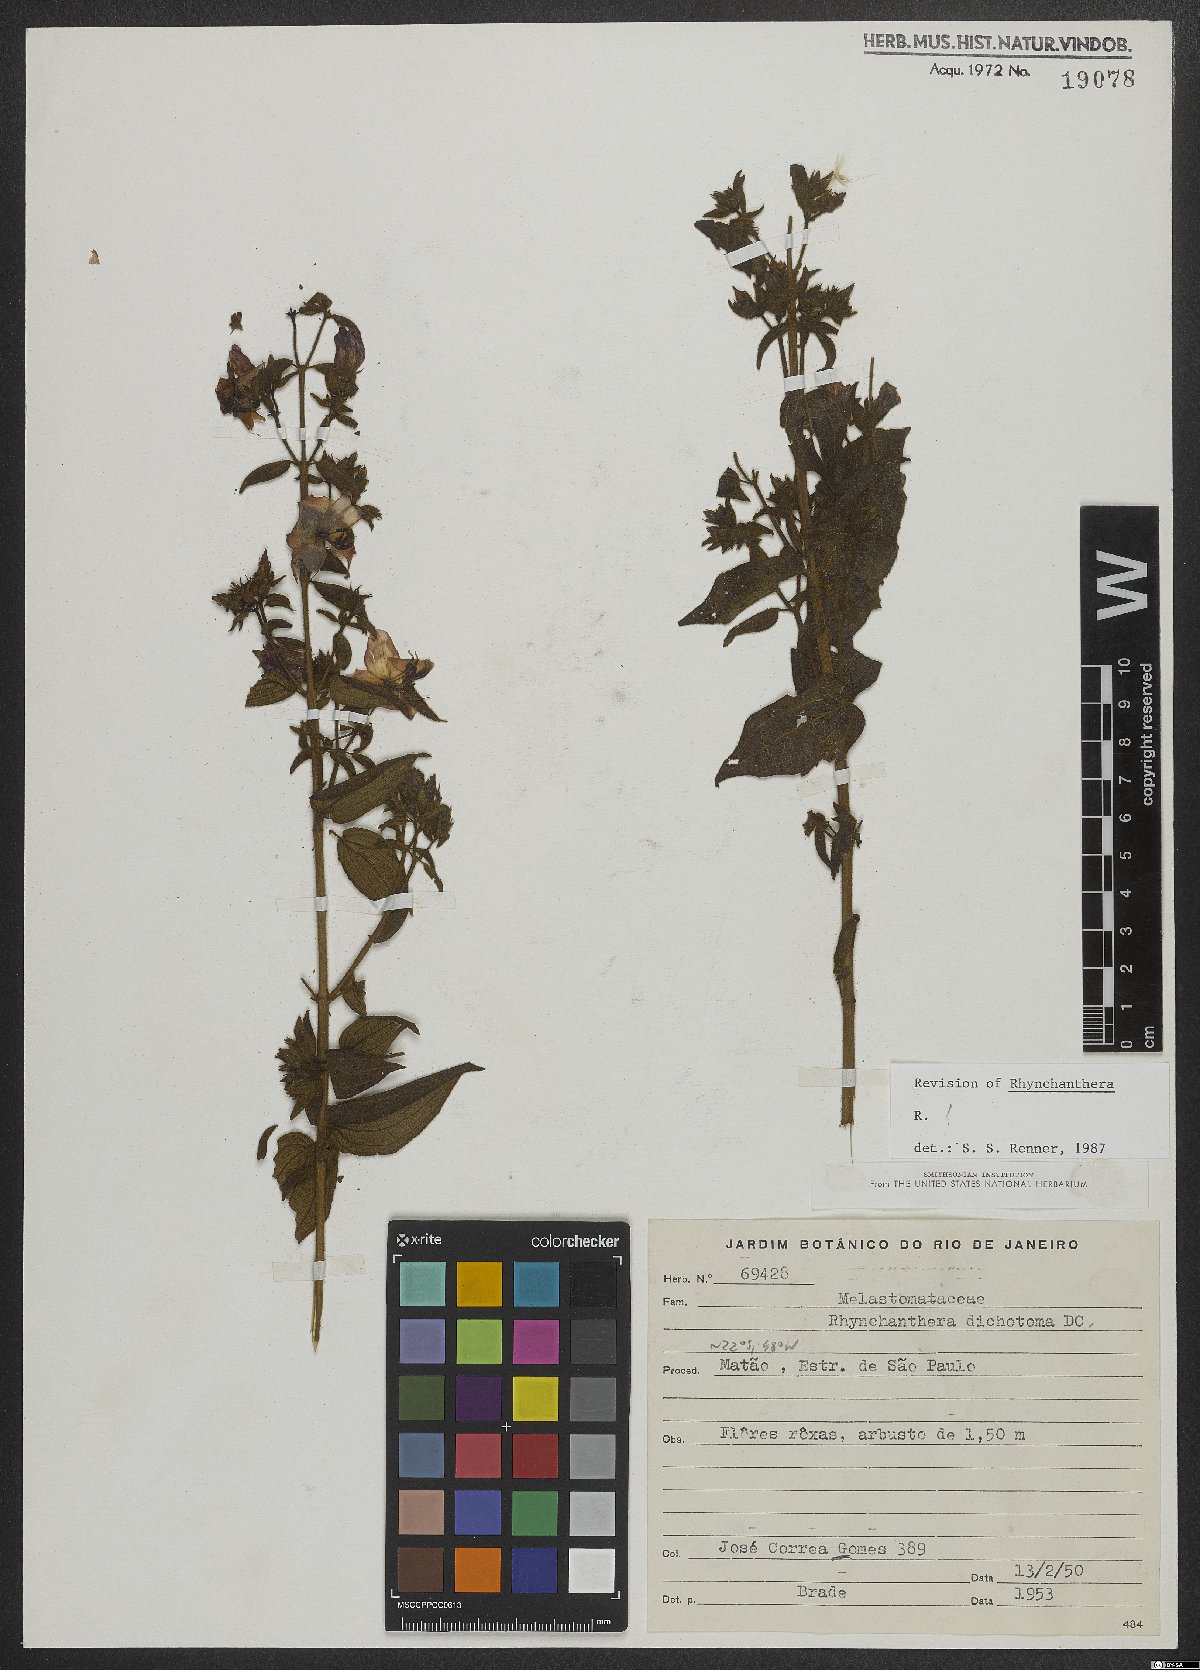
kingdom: Plantae
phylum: Tracheophyta
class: Magnoliopsida
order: Myrtales
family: Melastomataceae
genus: Rhynchanthera
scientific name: Rhynchanthera dichotoma
